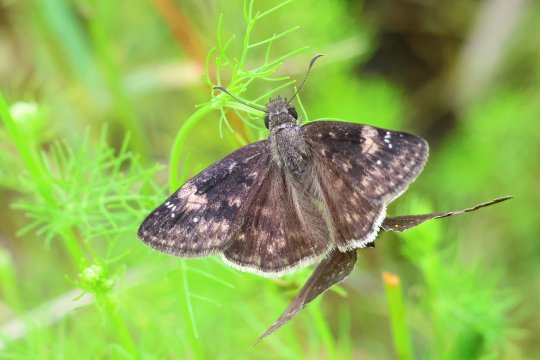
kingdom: Animalia
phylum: Arthropoda
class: Insecta
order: Lepidoptera
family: Hesperiidae
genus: Erynnis
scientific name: Erynnis zarucco
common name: Zarucco Duskywing
